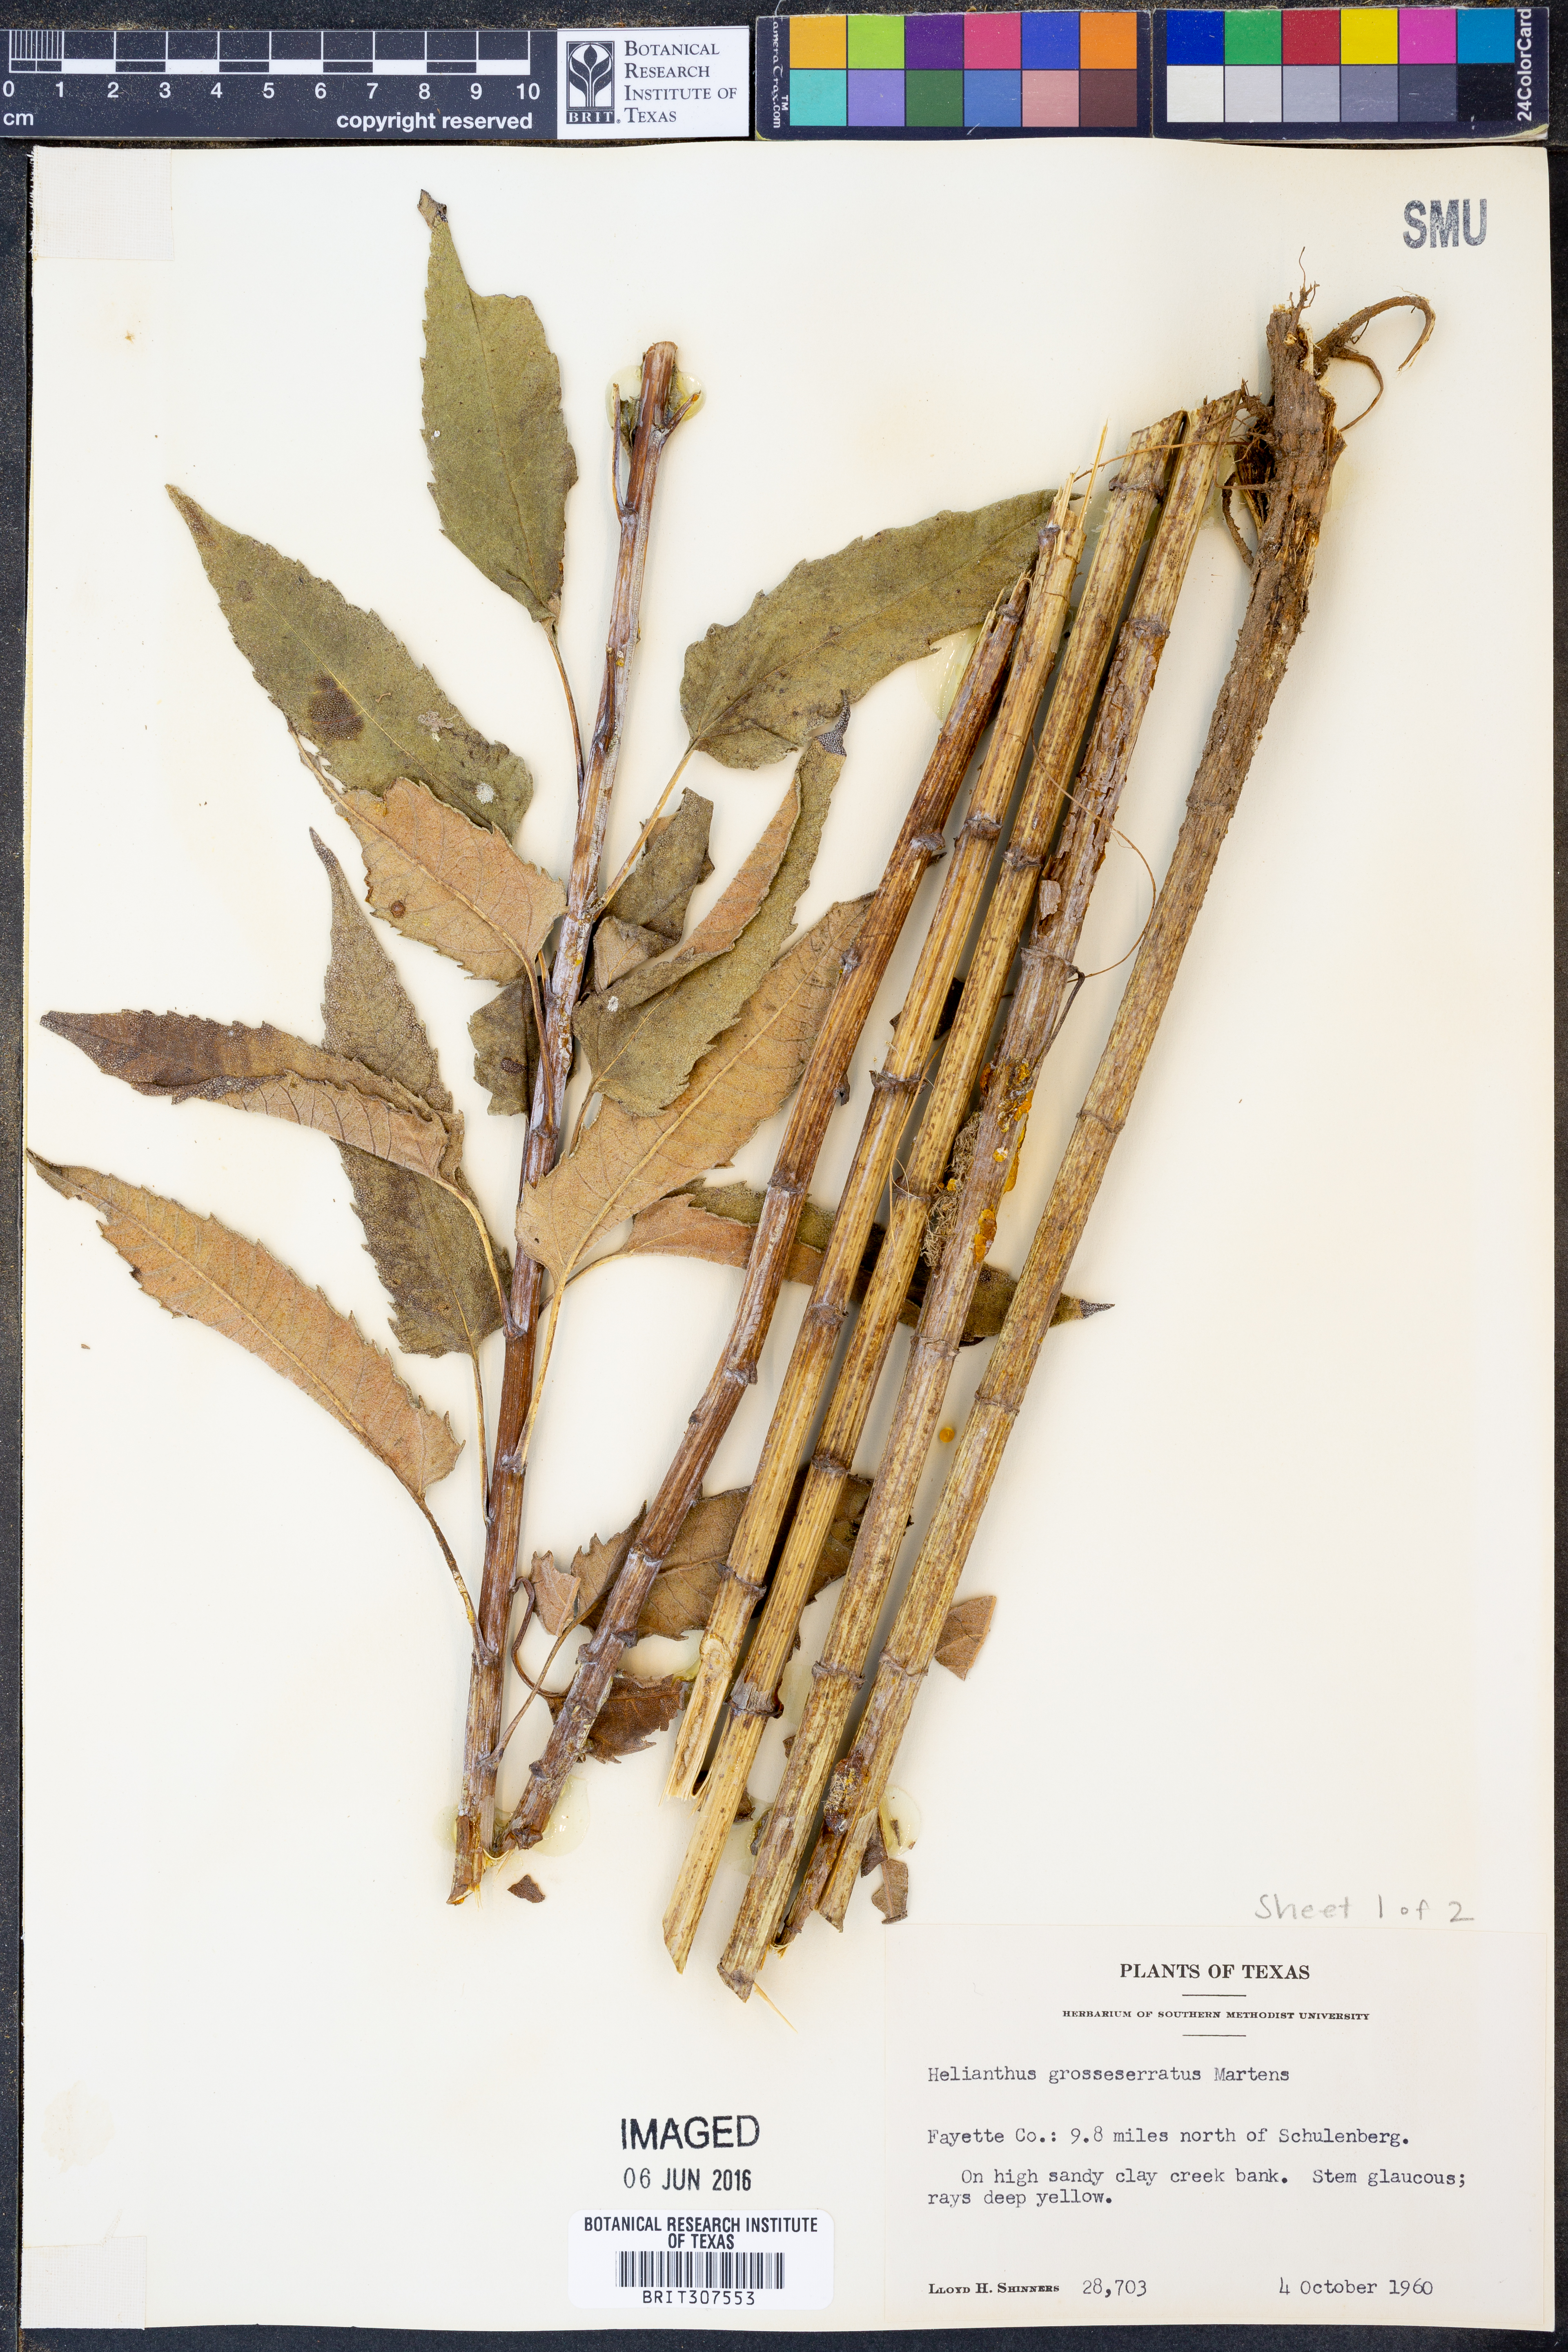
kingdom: Plantae
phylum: Tracheophyta
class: Magnoliopsida
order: Asterales
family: Asteraceae
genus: Helianthus
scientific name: Helianthus grosseserratus
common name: Sawtooth sunflower
